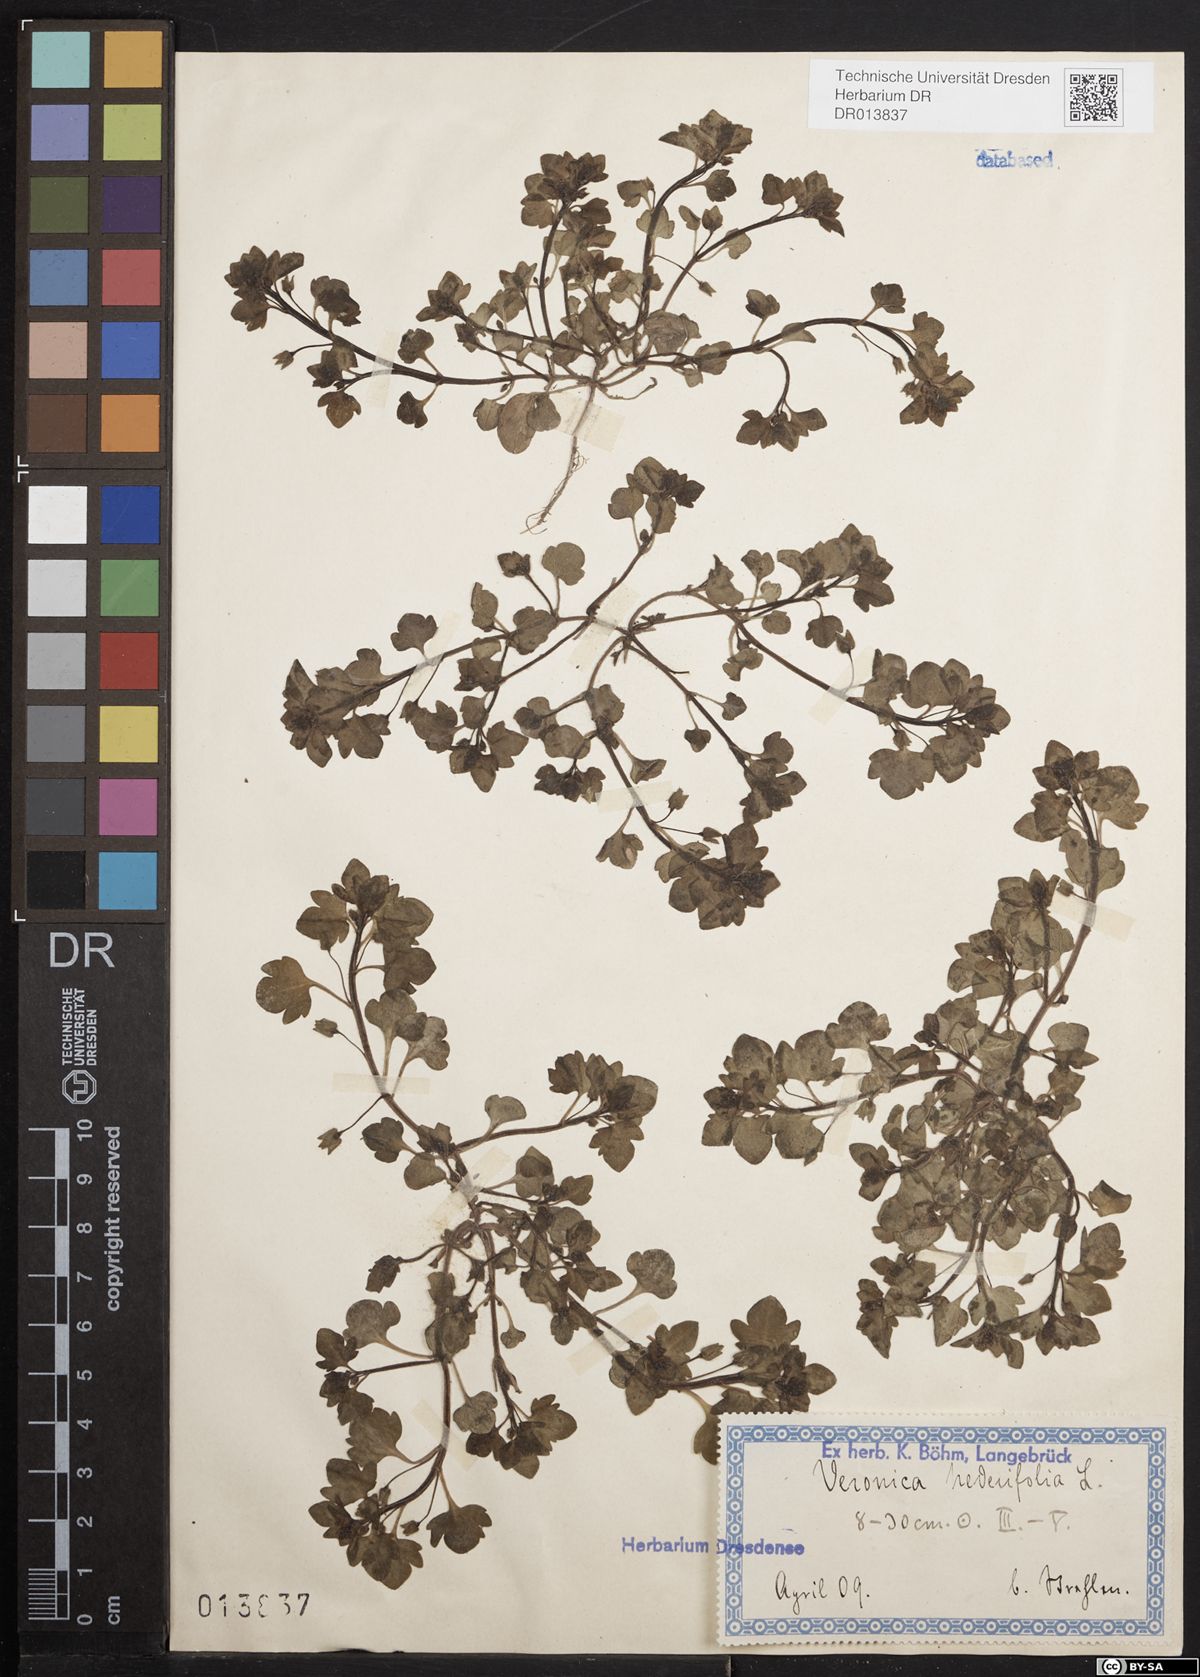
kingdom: Plantae
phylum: Tracheophyta
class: Magnoliopsida
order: Lamiales
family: Plantaginaceae
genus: Veronica
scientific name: Veronica hederifolia
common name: Ivy-leaved speedwell
